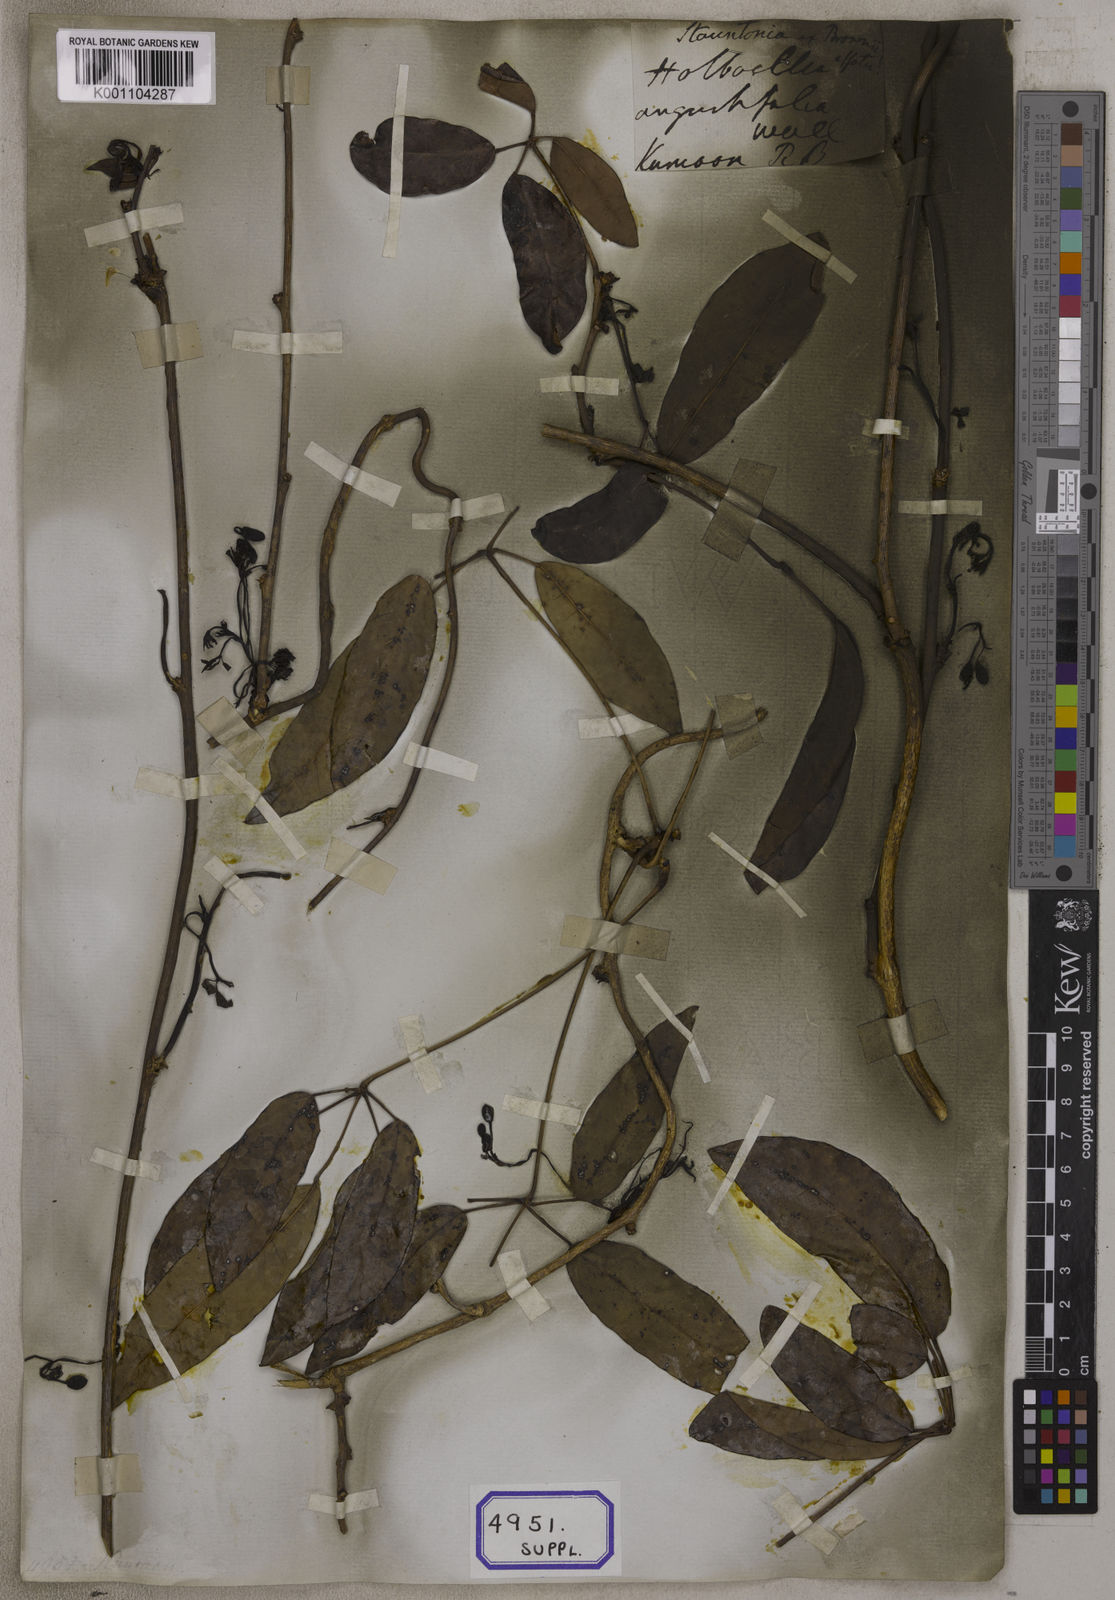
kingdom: Plantae
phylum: Tracheophyta
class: Magnoliopsida
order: Ranunculales
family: Lardizabalaceae
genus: Stauntonia
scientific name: Stauntonia angustifolia
